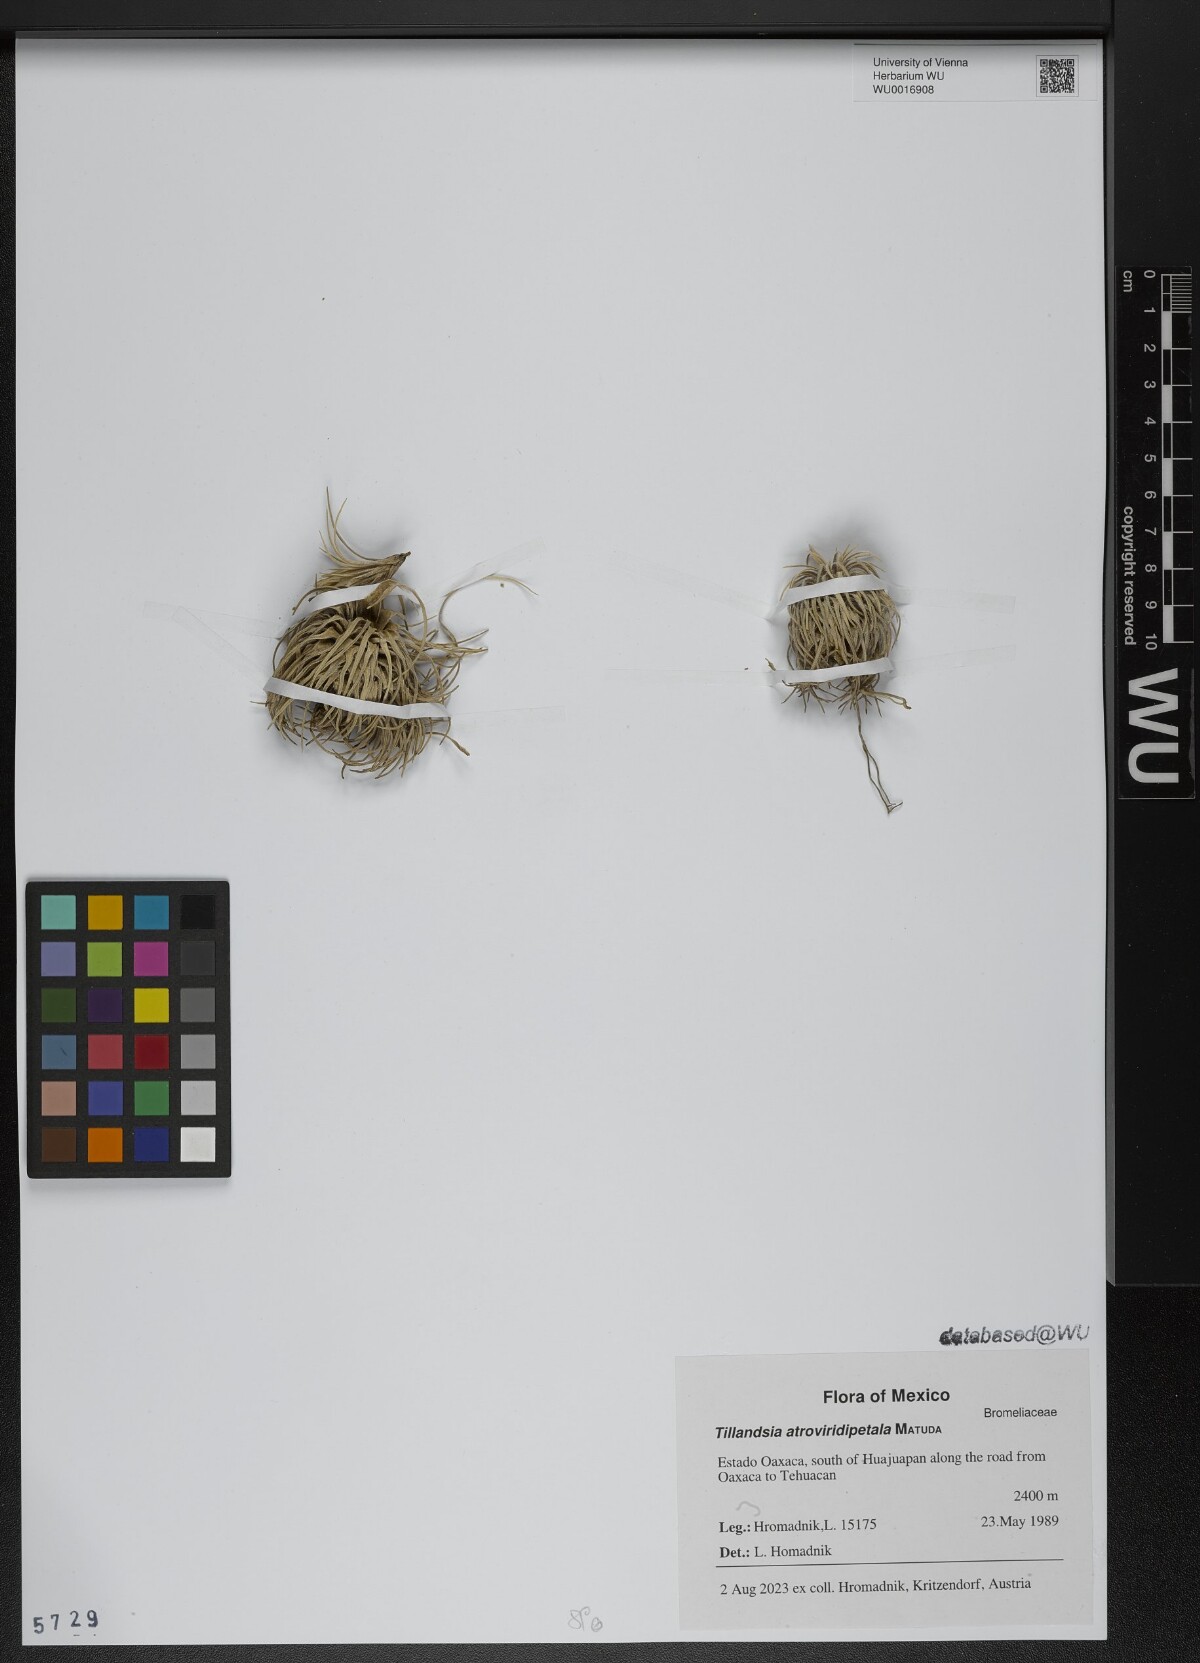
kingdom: Plantae
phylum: Tracheophyta
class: Liliopsida
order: Poales
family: Bromeliaceae
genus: Tillandsia
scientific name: Tillandsia atroviridipetala
